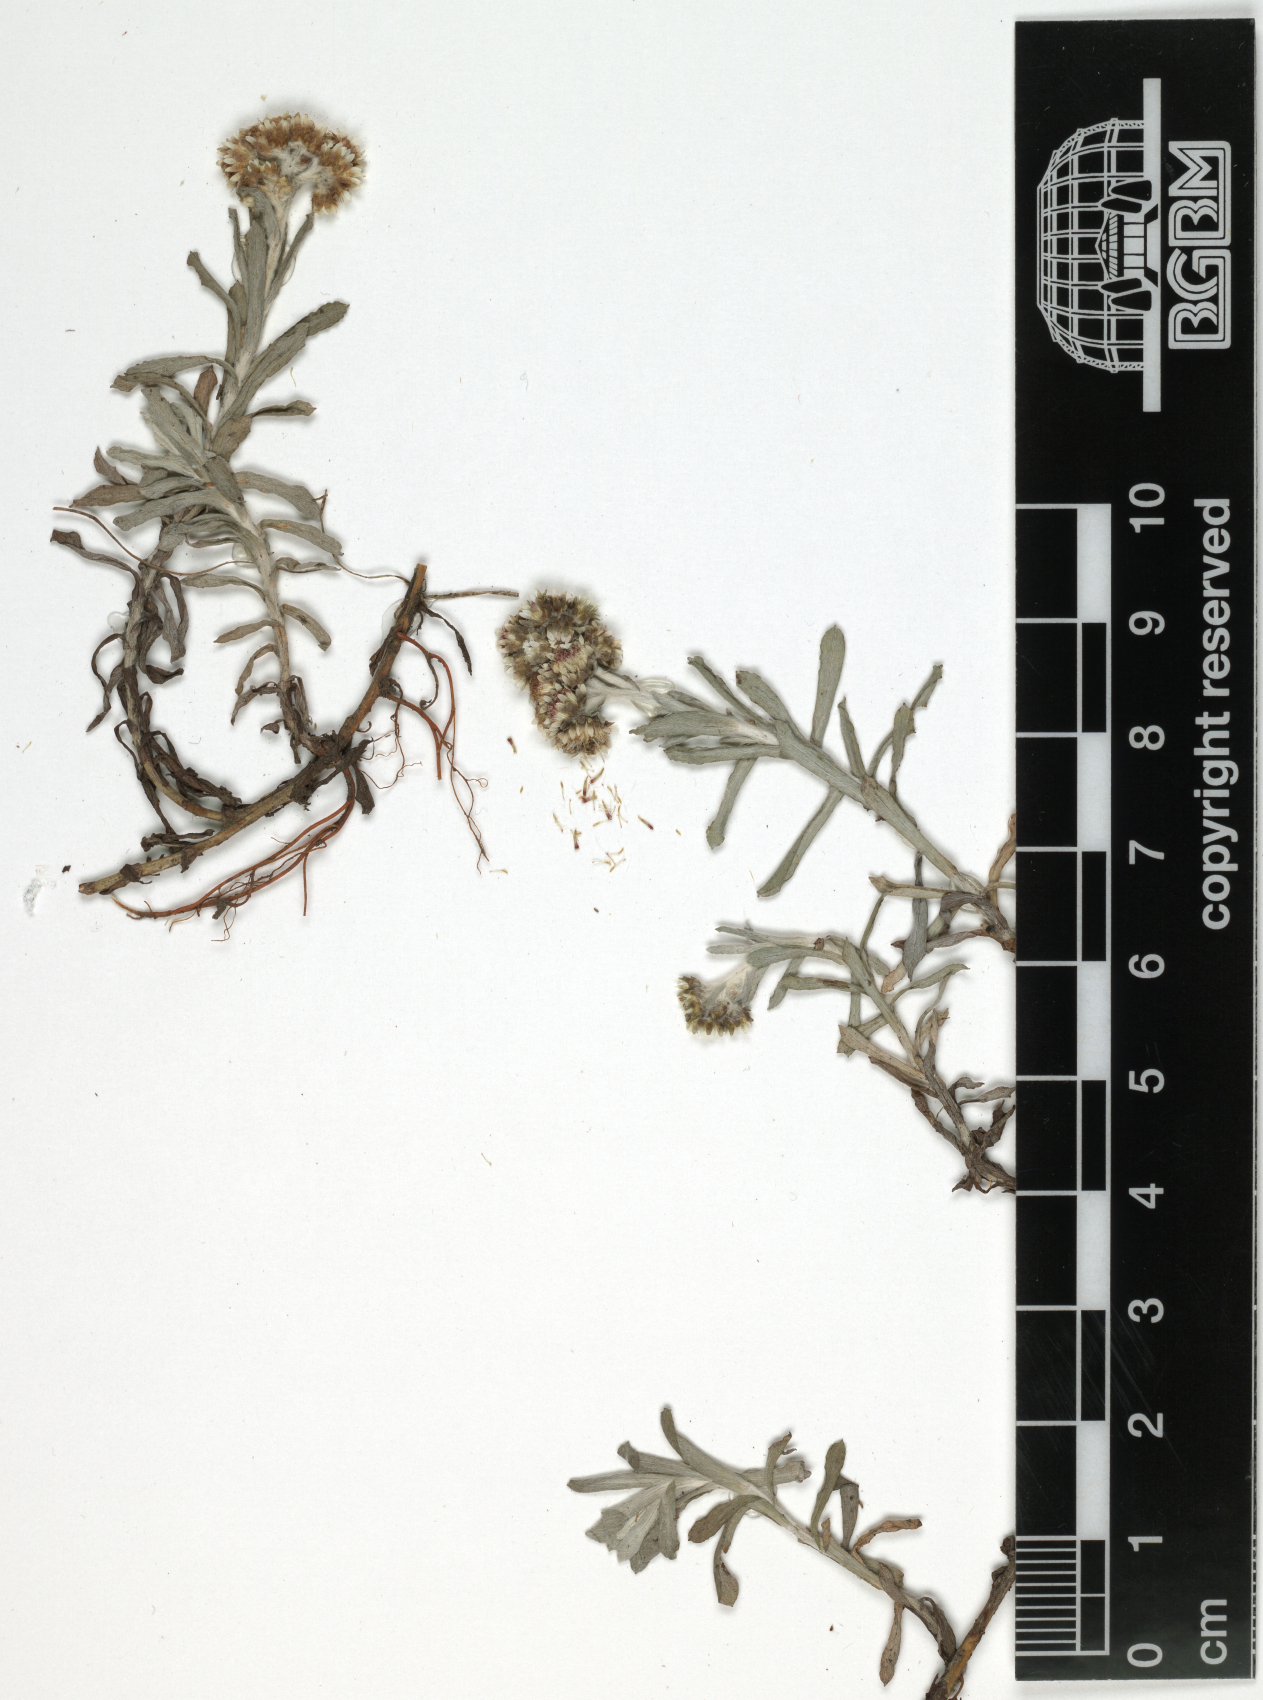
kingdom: Plantae
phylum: Tracheophyta
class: Magnoliopsida
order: Asterales
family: Asteraceae
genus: Gnaphalium
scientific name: Gnaphalium unionis
